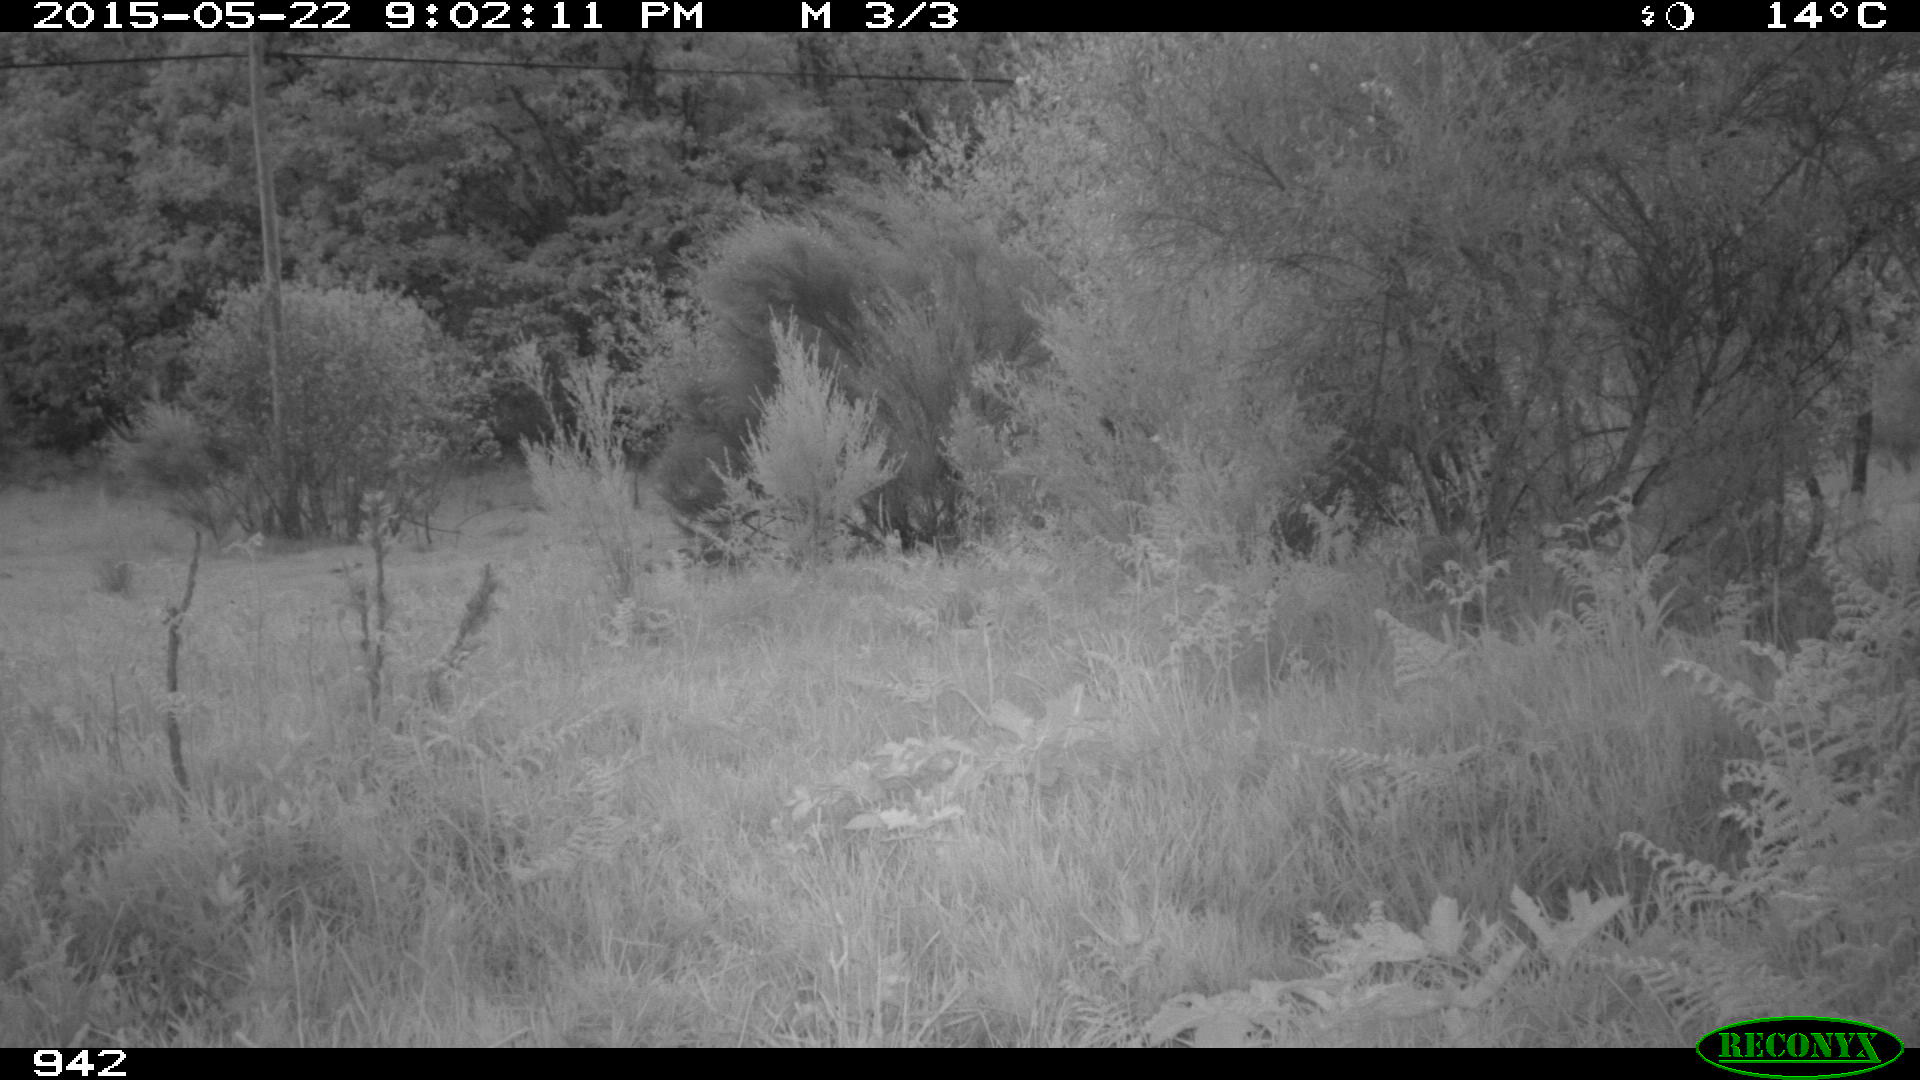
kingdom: Animalia
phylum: Chordata
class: Mammalia
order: Artiodactyla
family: Cervidae
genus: Capreolus
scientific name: Capreolus capreolus
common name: Western roe deer
